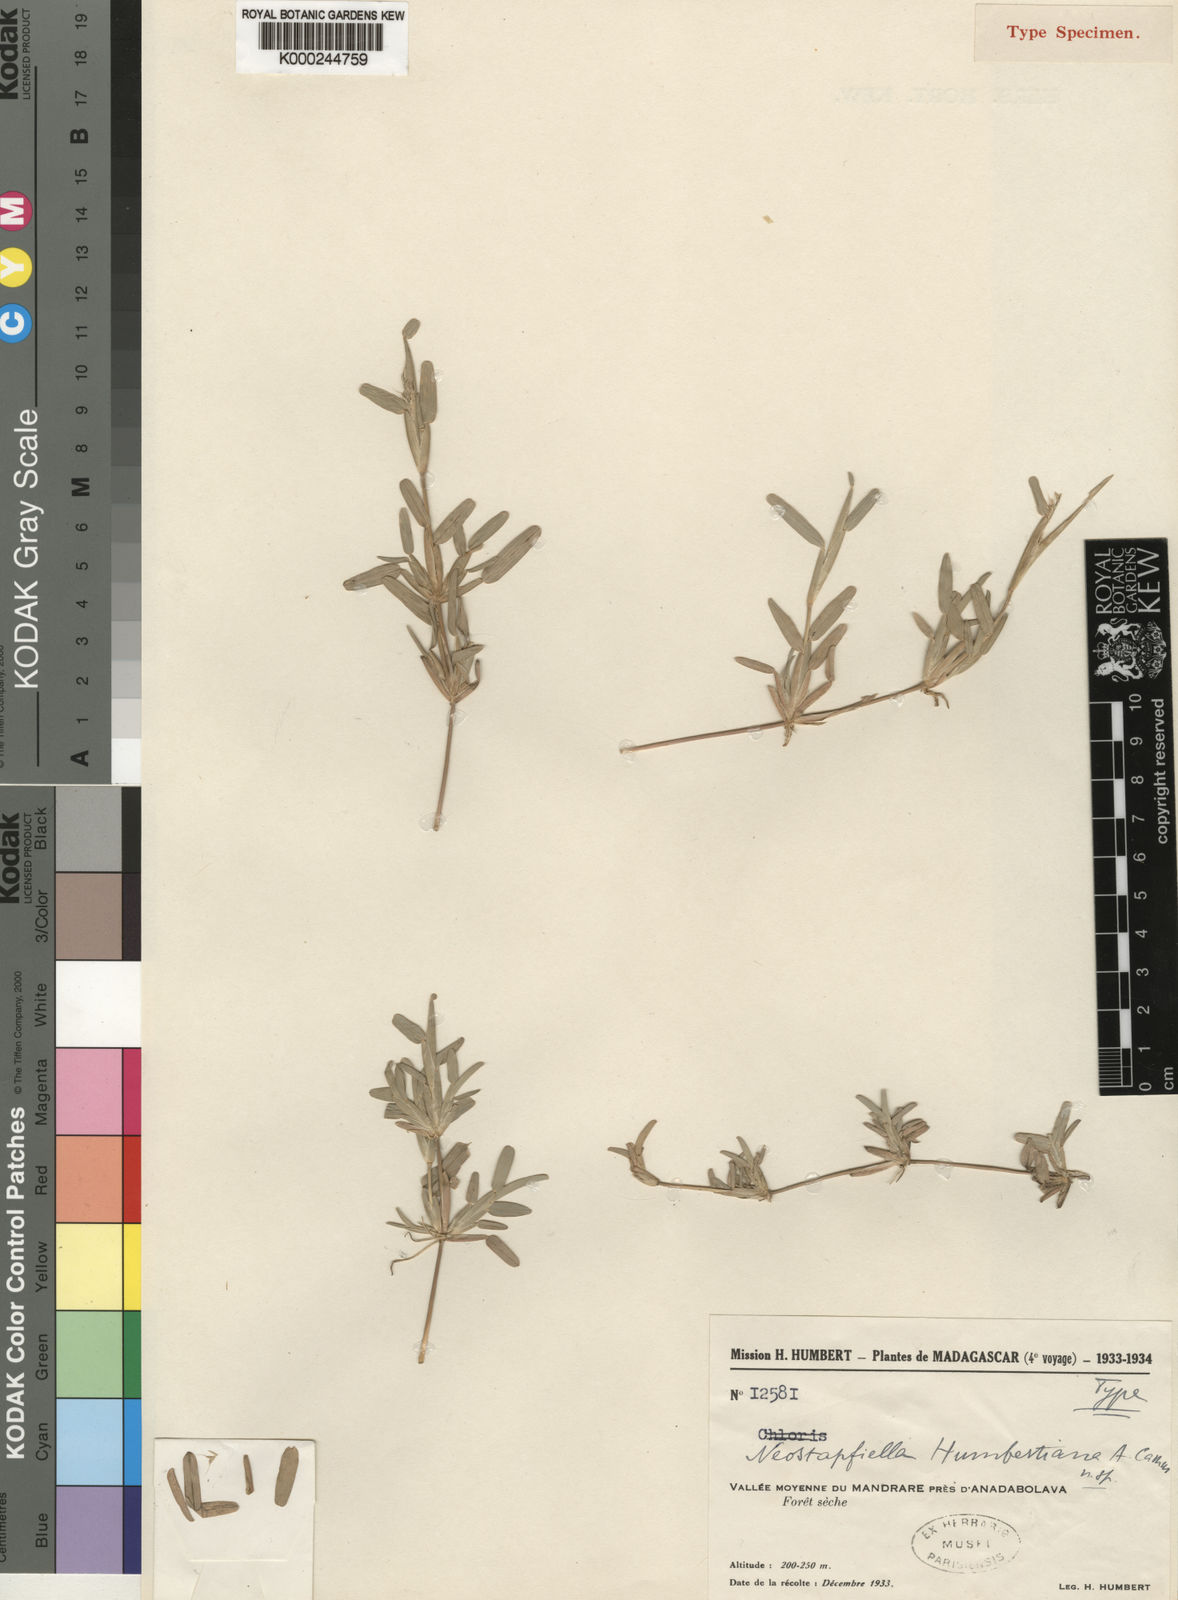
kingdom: Plantae
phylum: Tracheophyta
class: Liliopsida
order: Poales
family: Poaceae
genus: Neostapfiella
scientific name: Neostapfiella humbertiana
